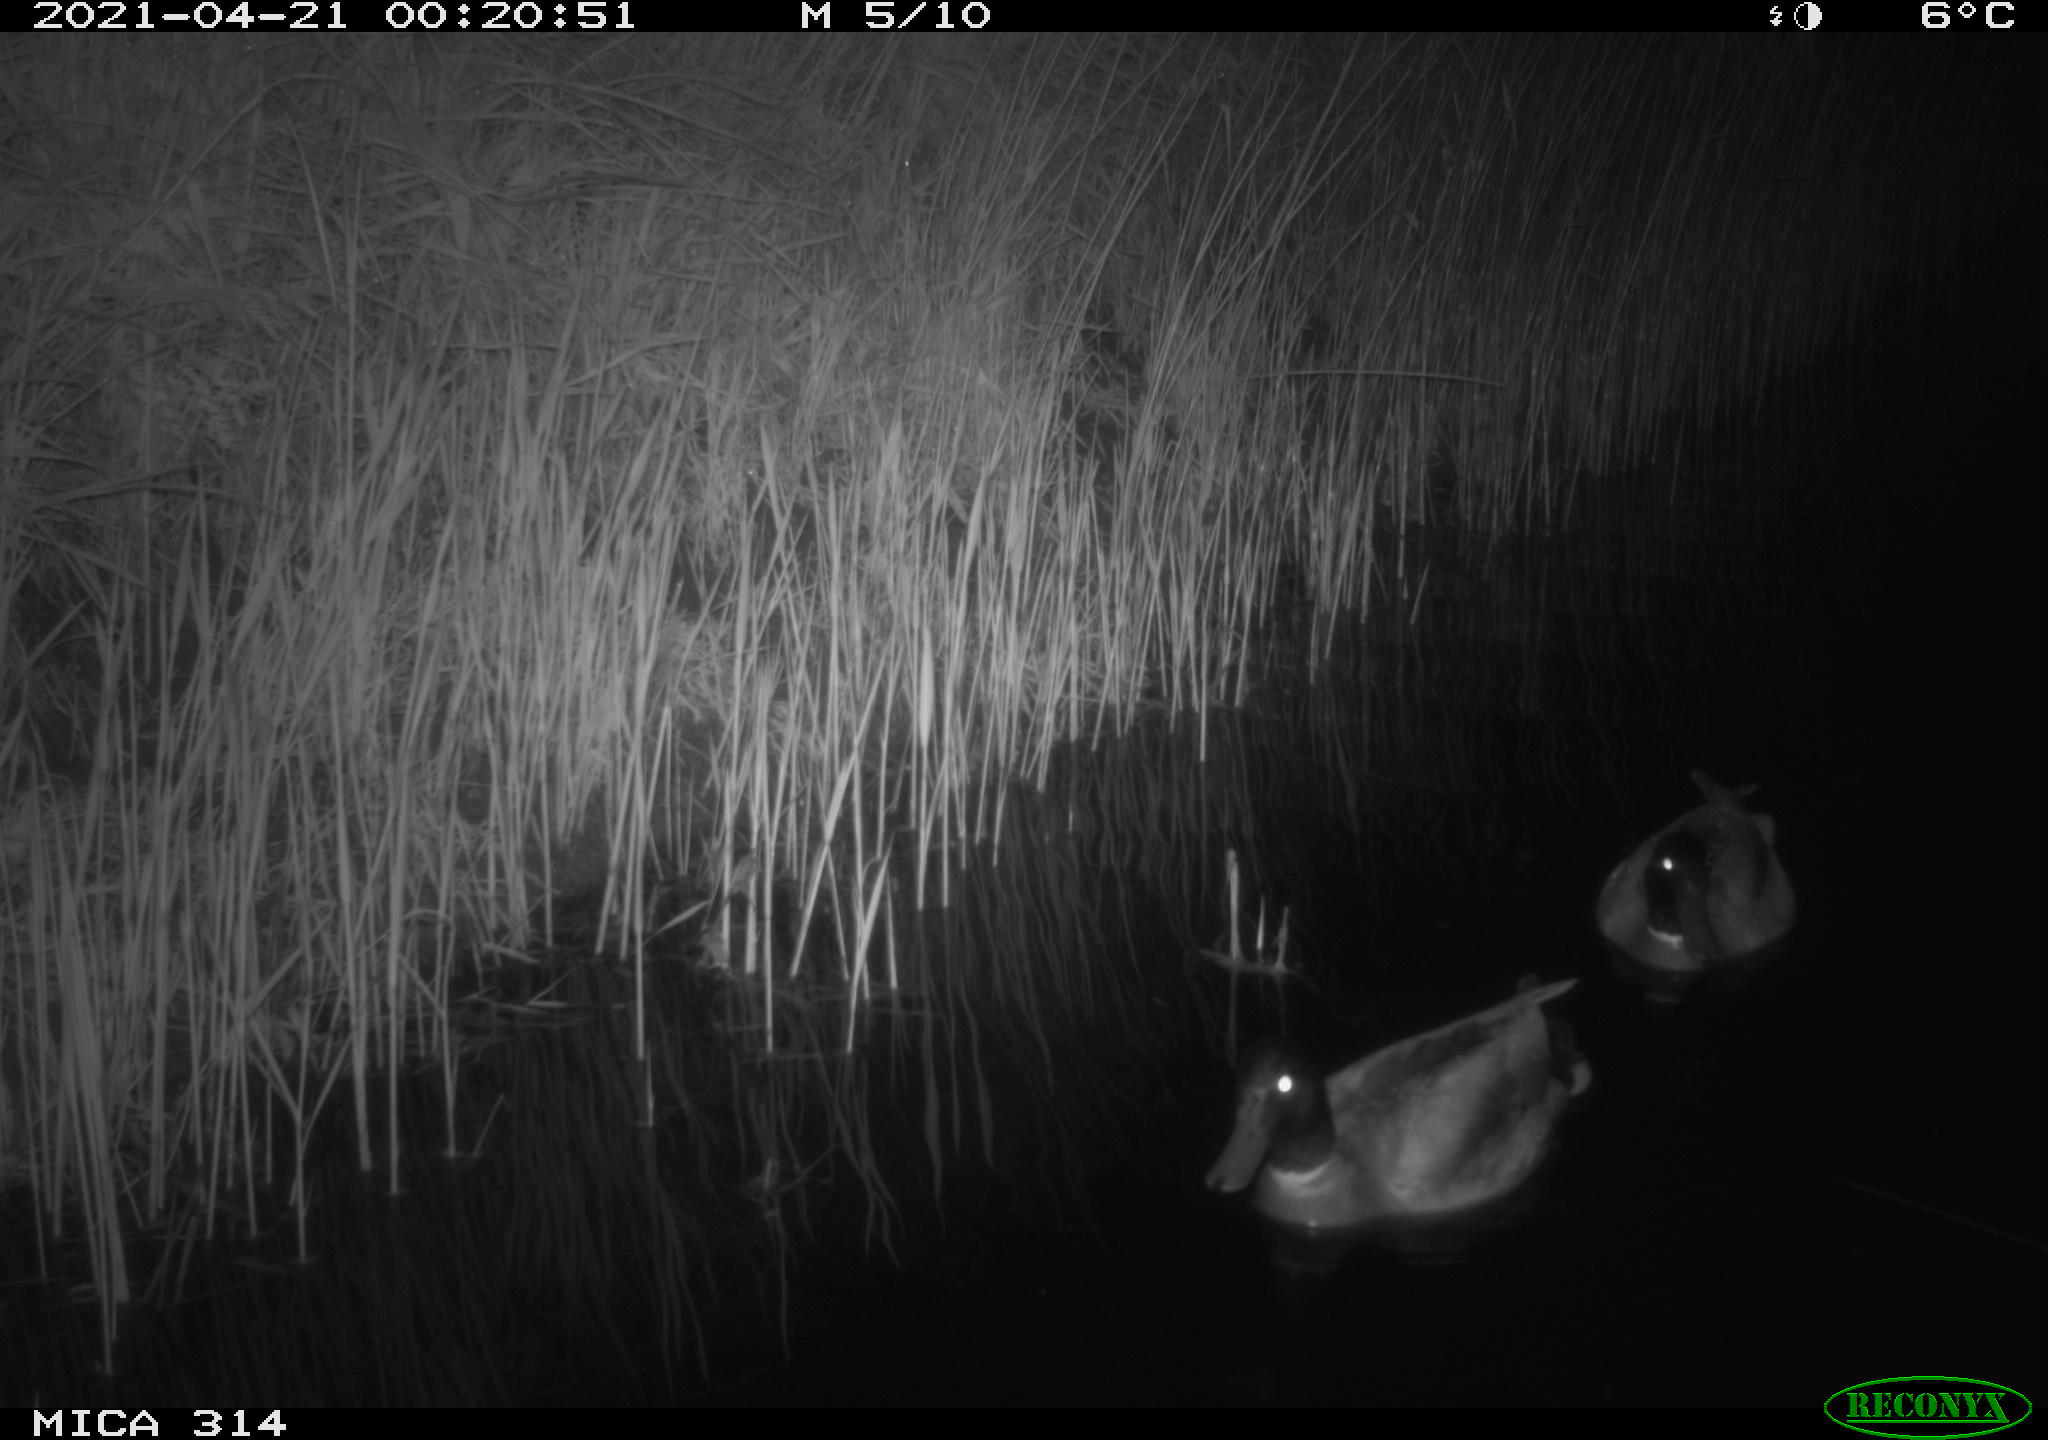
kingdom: Animalia
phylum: Chordata
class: Aves
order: Anseriformes
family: Anatidae
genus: Anas
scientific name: Anas platyrhynchos
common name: Mallard
